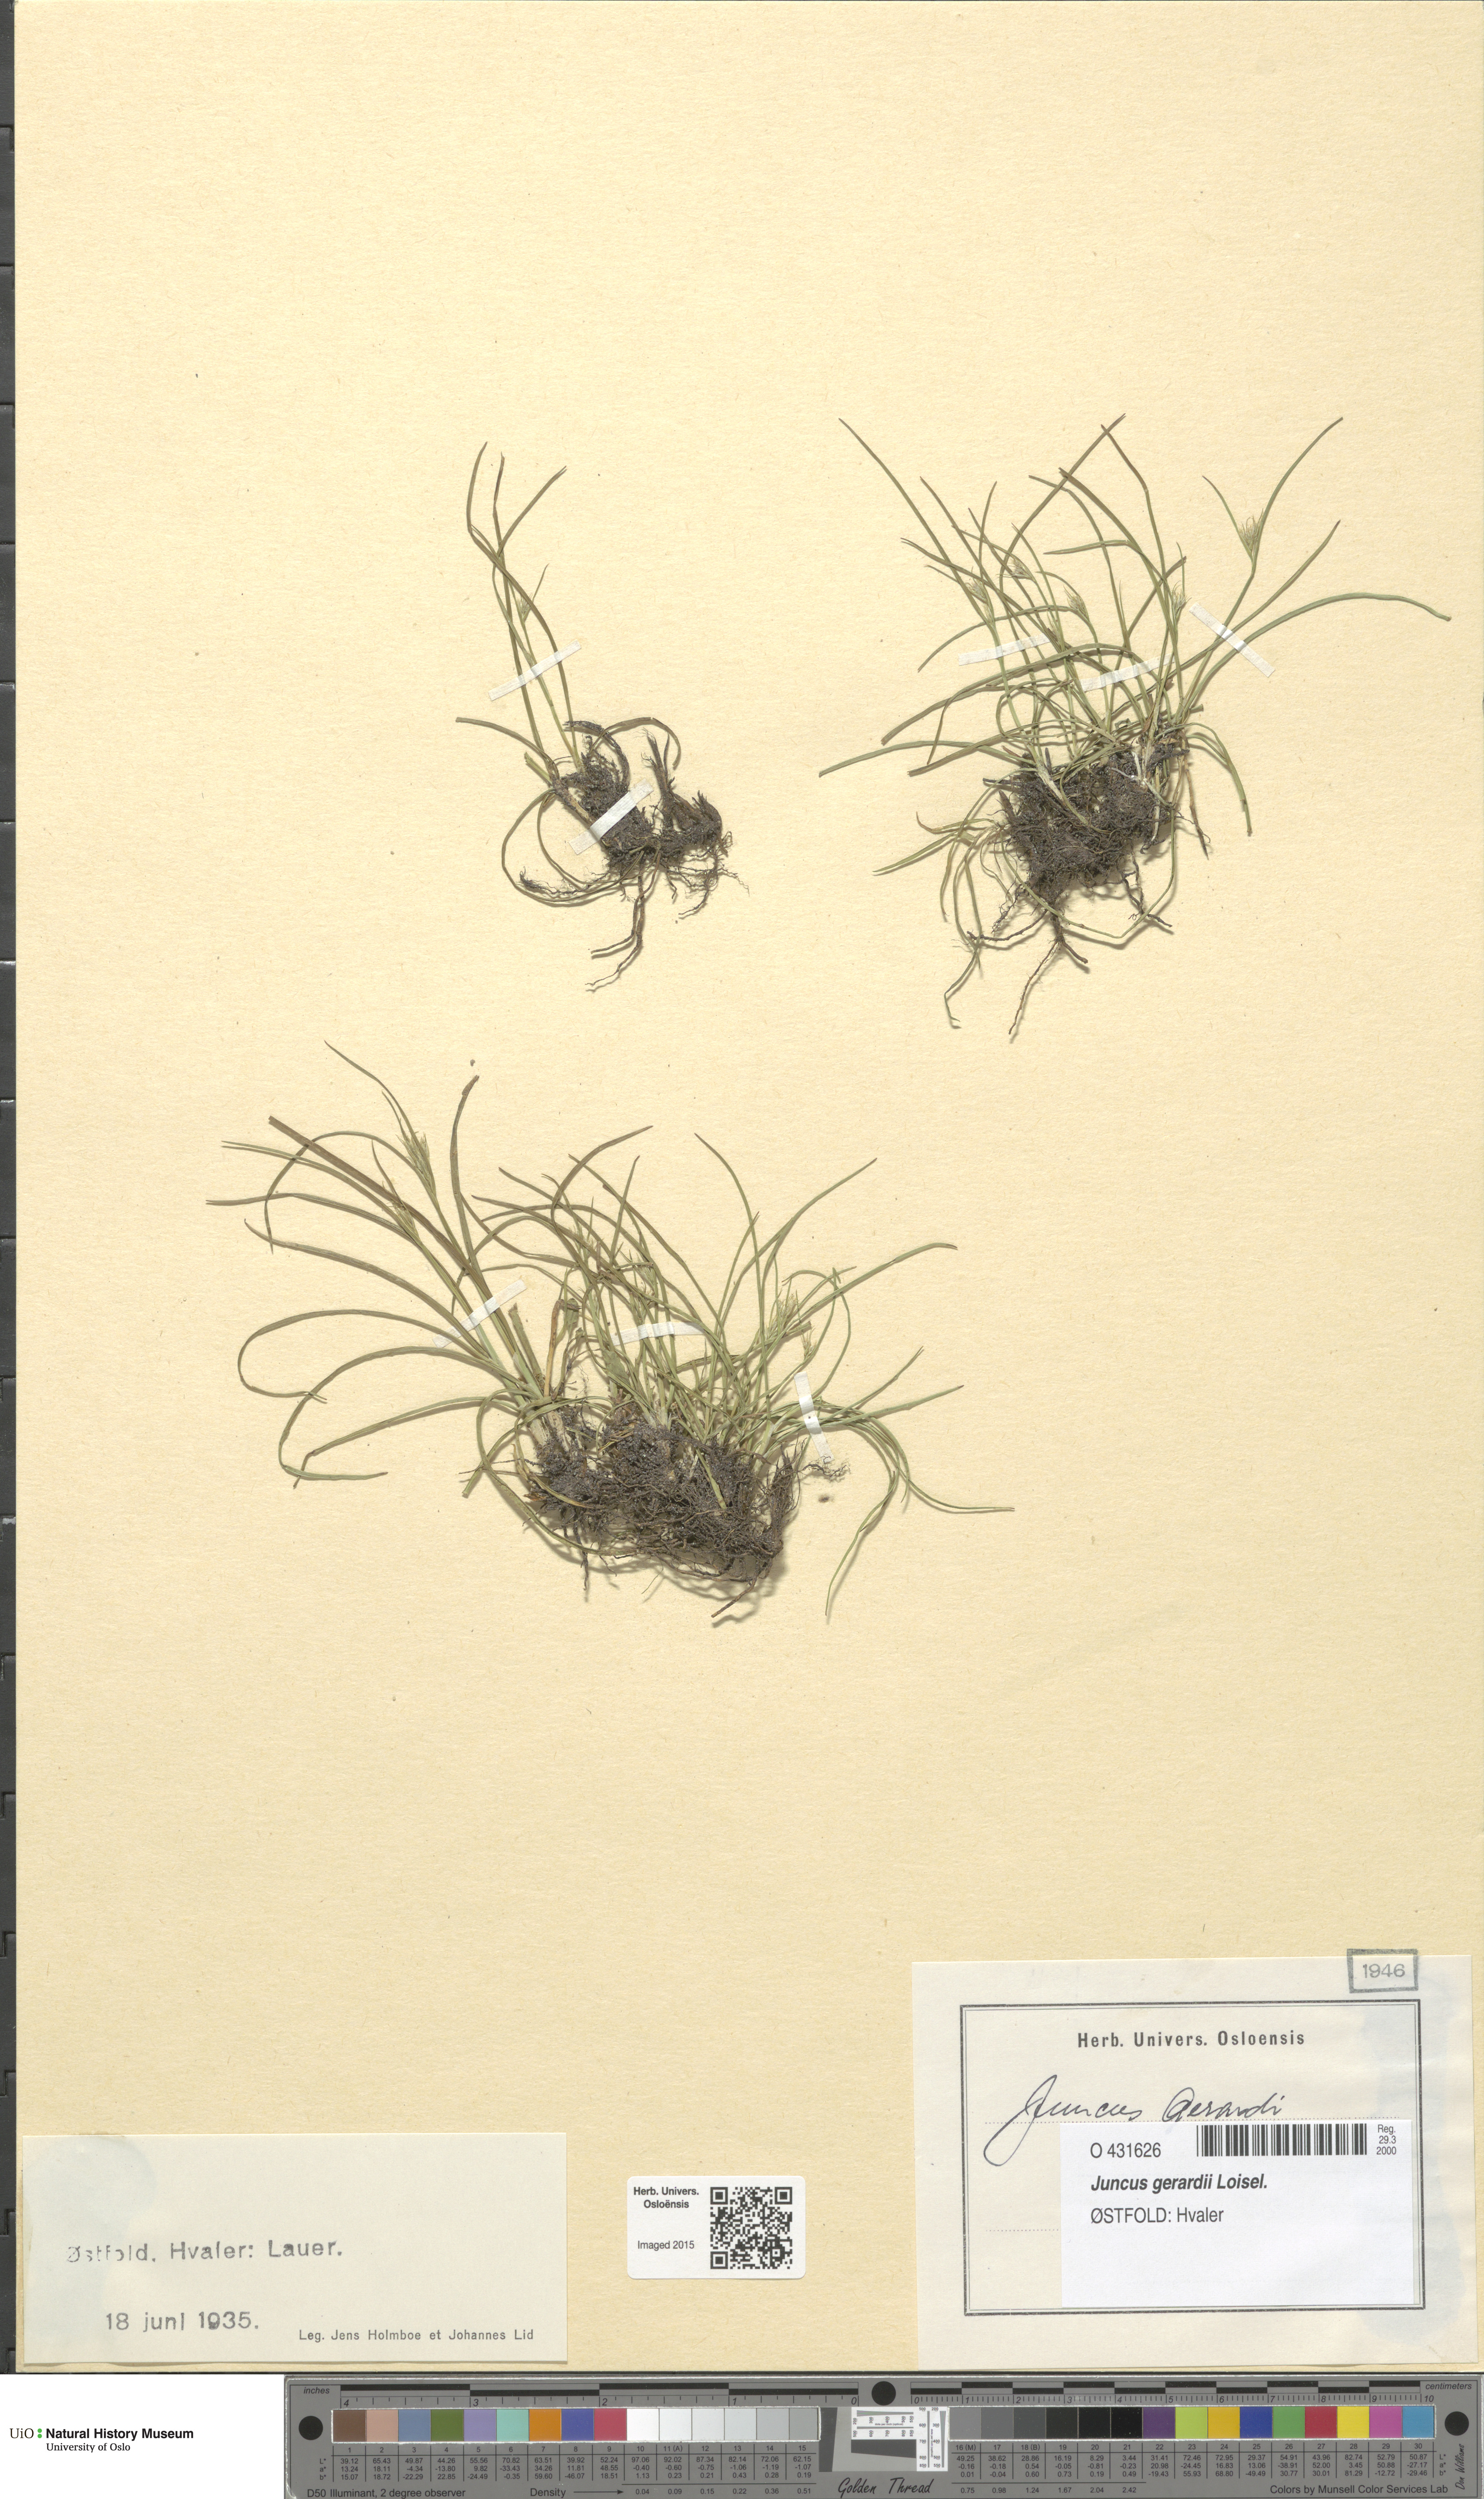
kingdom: Plantae
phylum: Tracheophyta
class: Liliopsida
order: Poales
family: Juncaceae
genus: Juncus
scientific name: Juncus compressus
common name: Round-fruited rush
